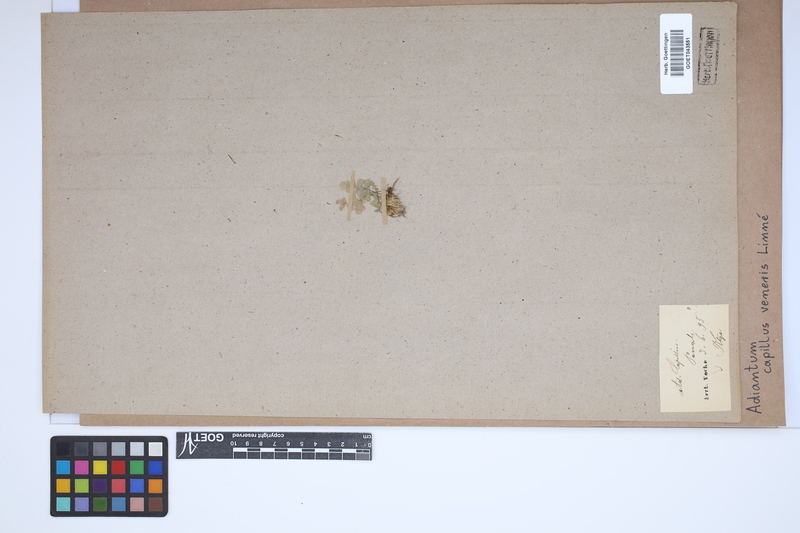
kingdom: Plantae
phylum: Tracheophyta
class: Polypodiopsida
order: Polypodiales
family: Pteridaceae
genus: Adiantum
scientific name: Adiantum capillus-veneris
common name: Maidenhair fern
